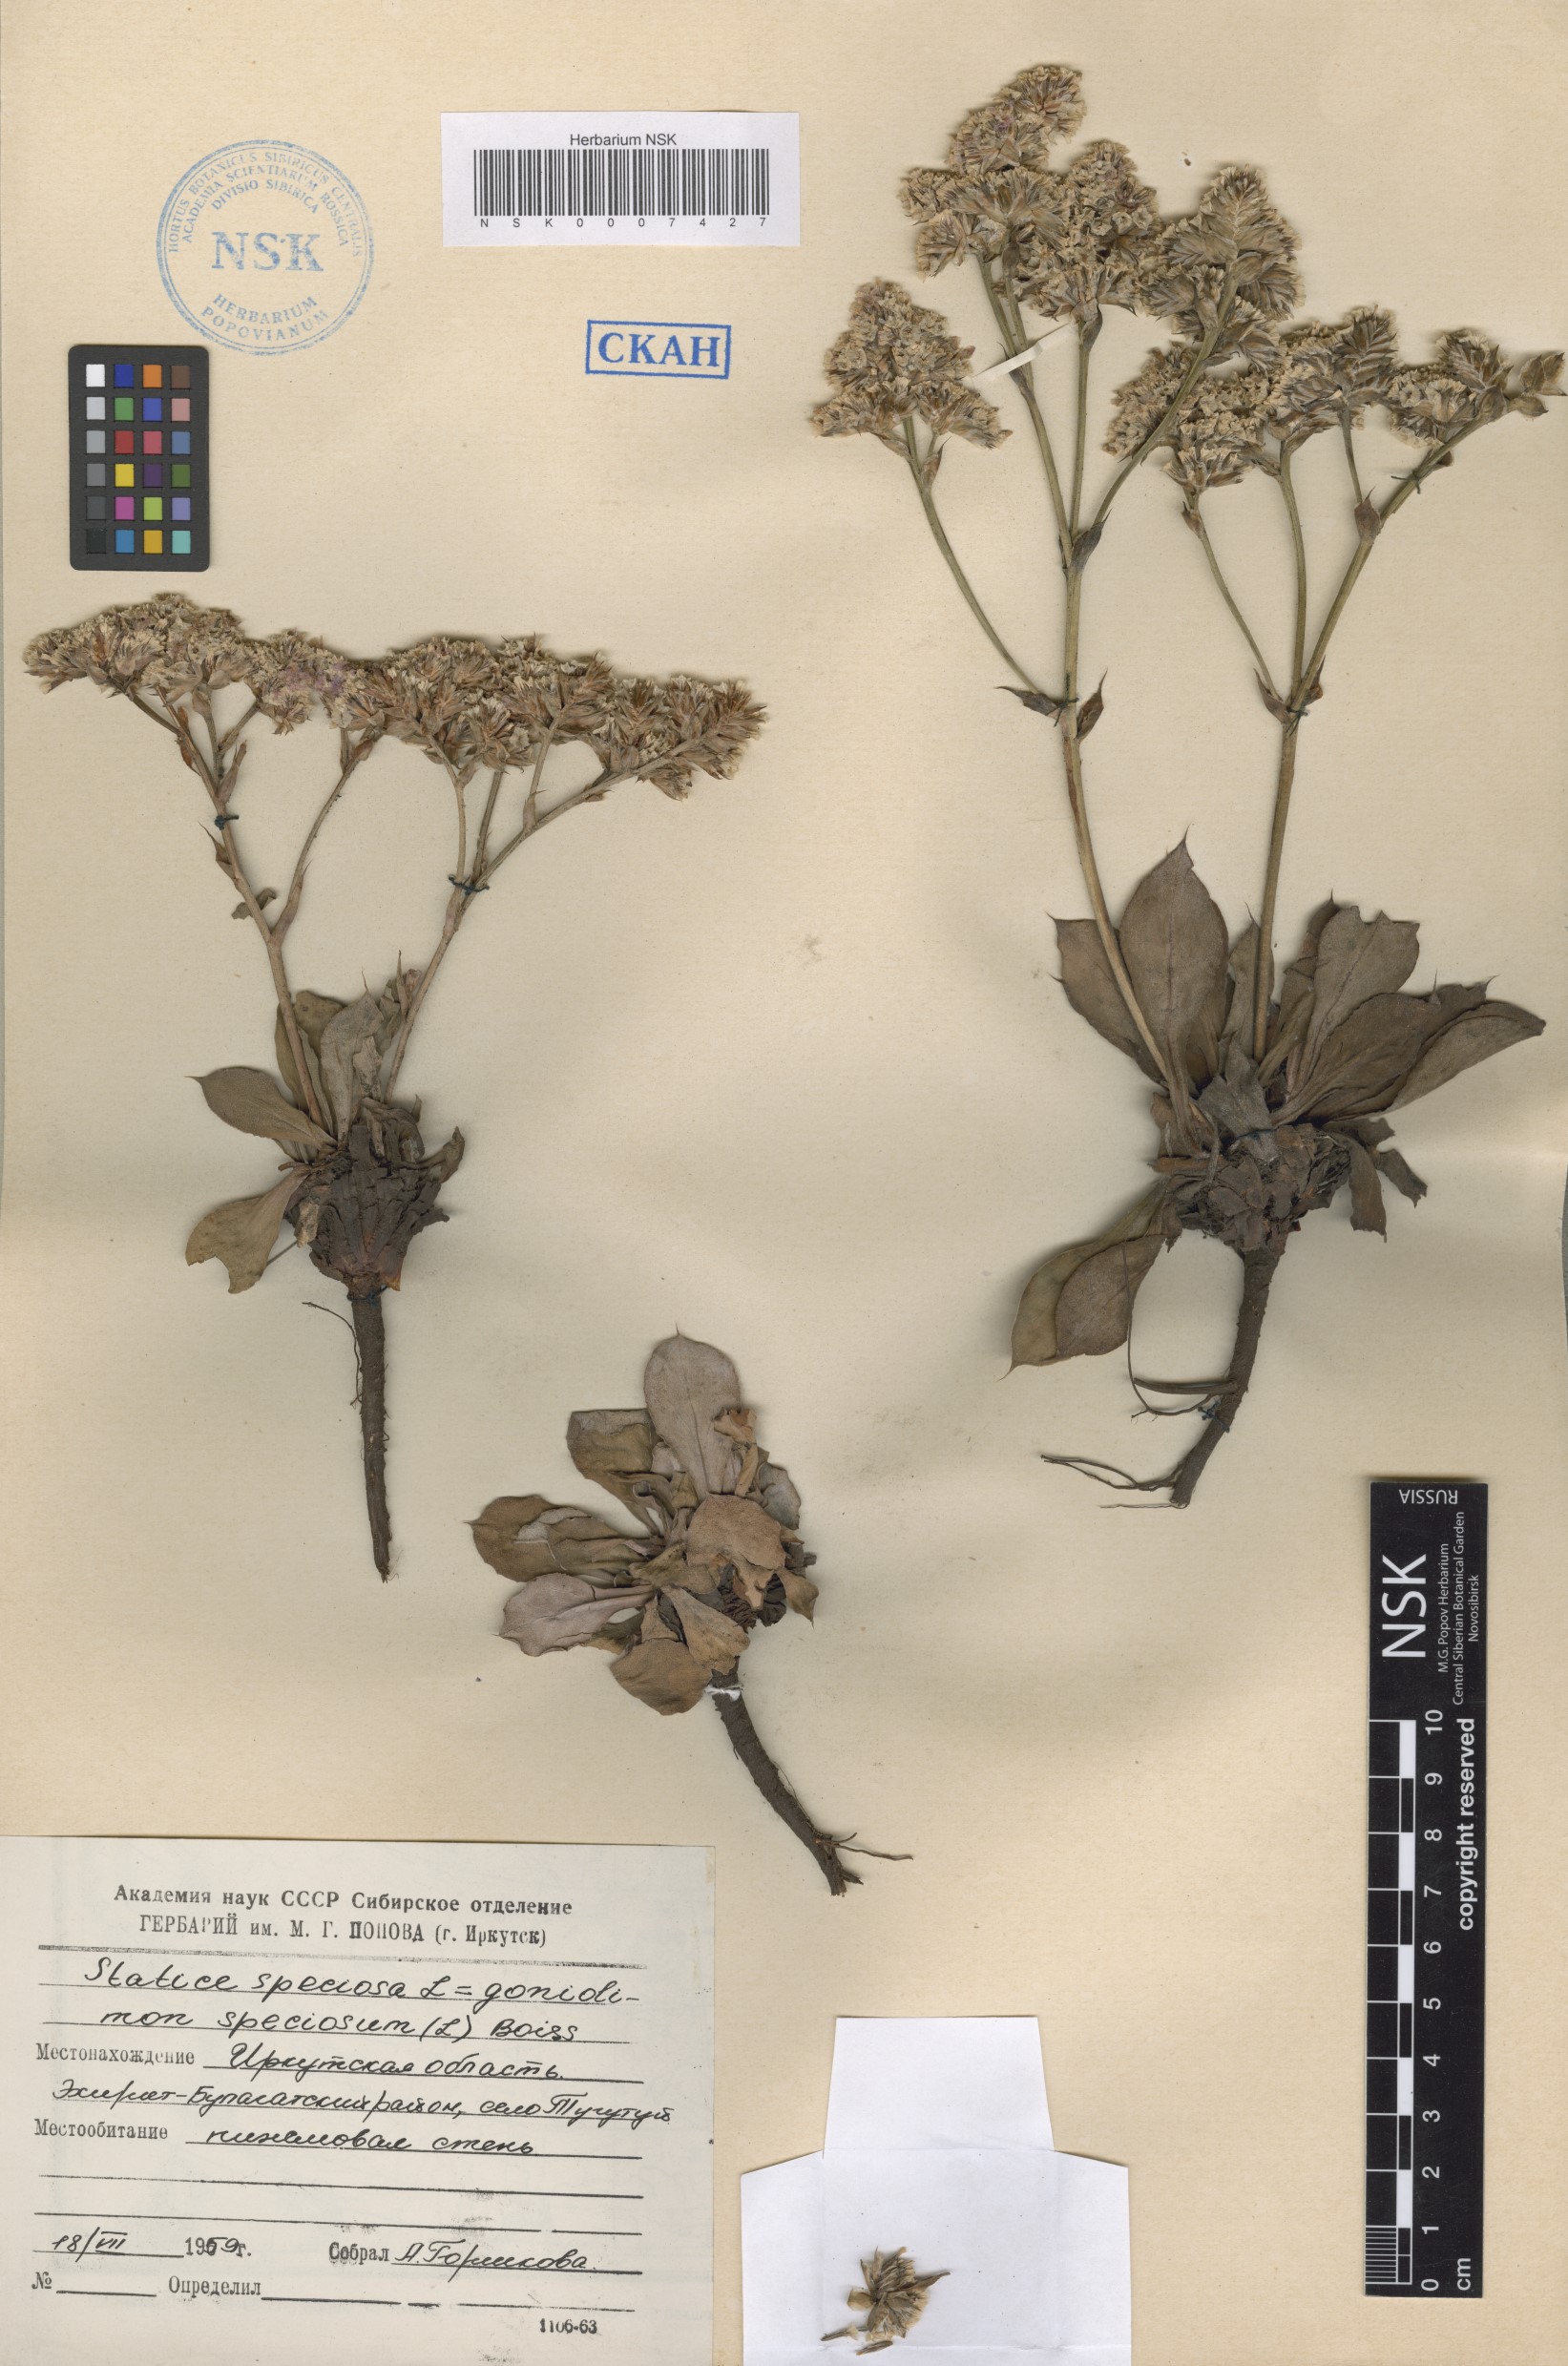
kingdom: Plantae
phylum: Tracheophyta
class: Magnoliopsida
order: Caryophyllales
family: Plumbaginaceae
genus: Goniolimon
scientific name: Goniolimon speciosum
